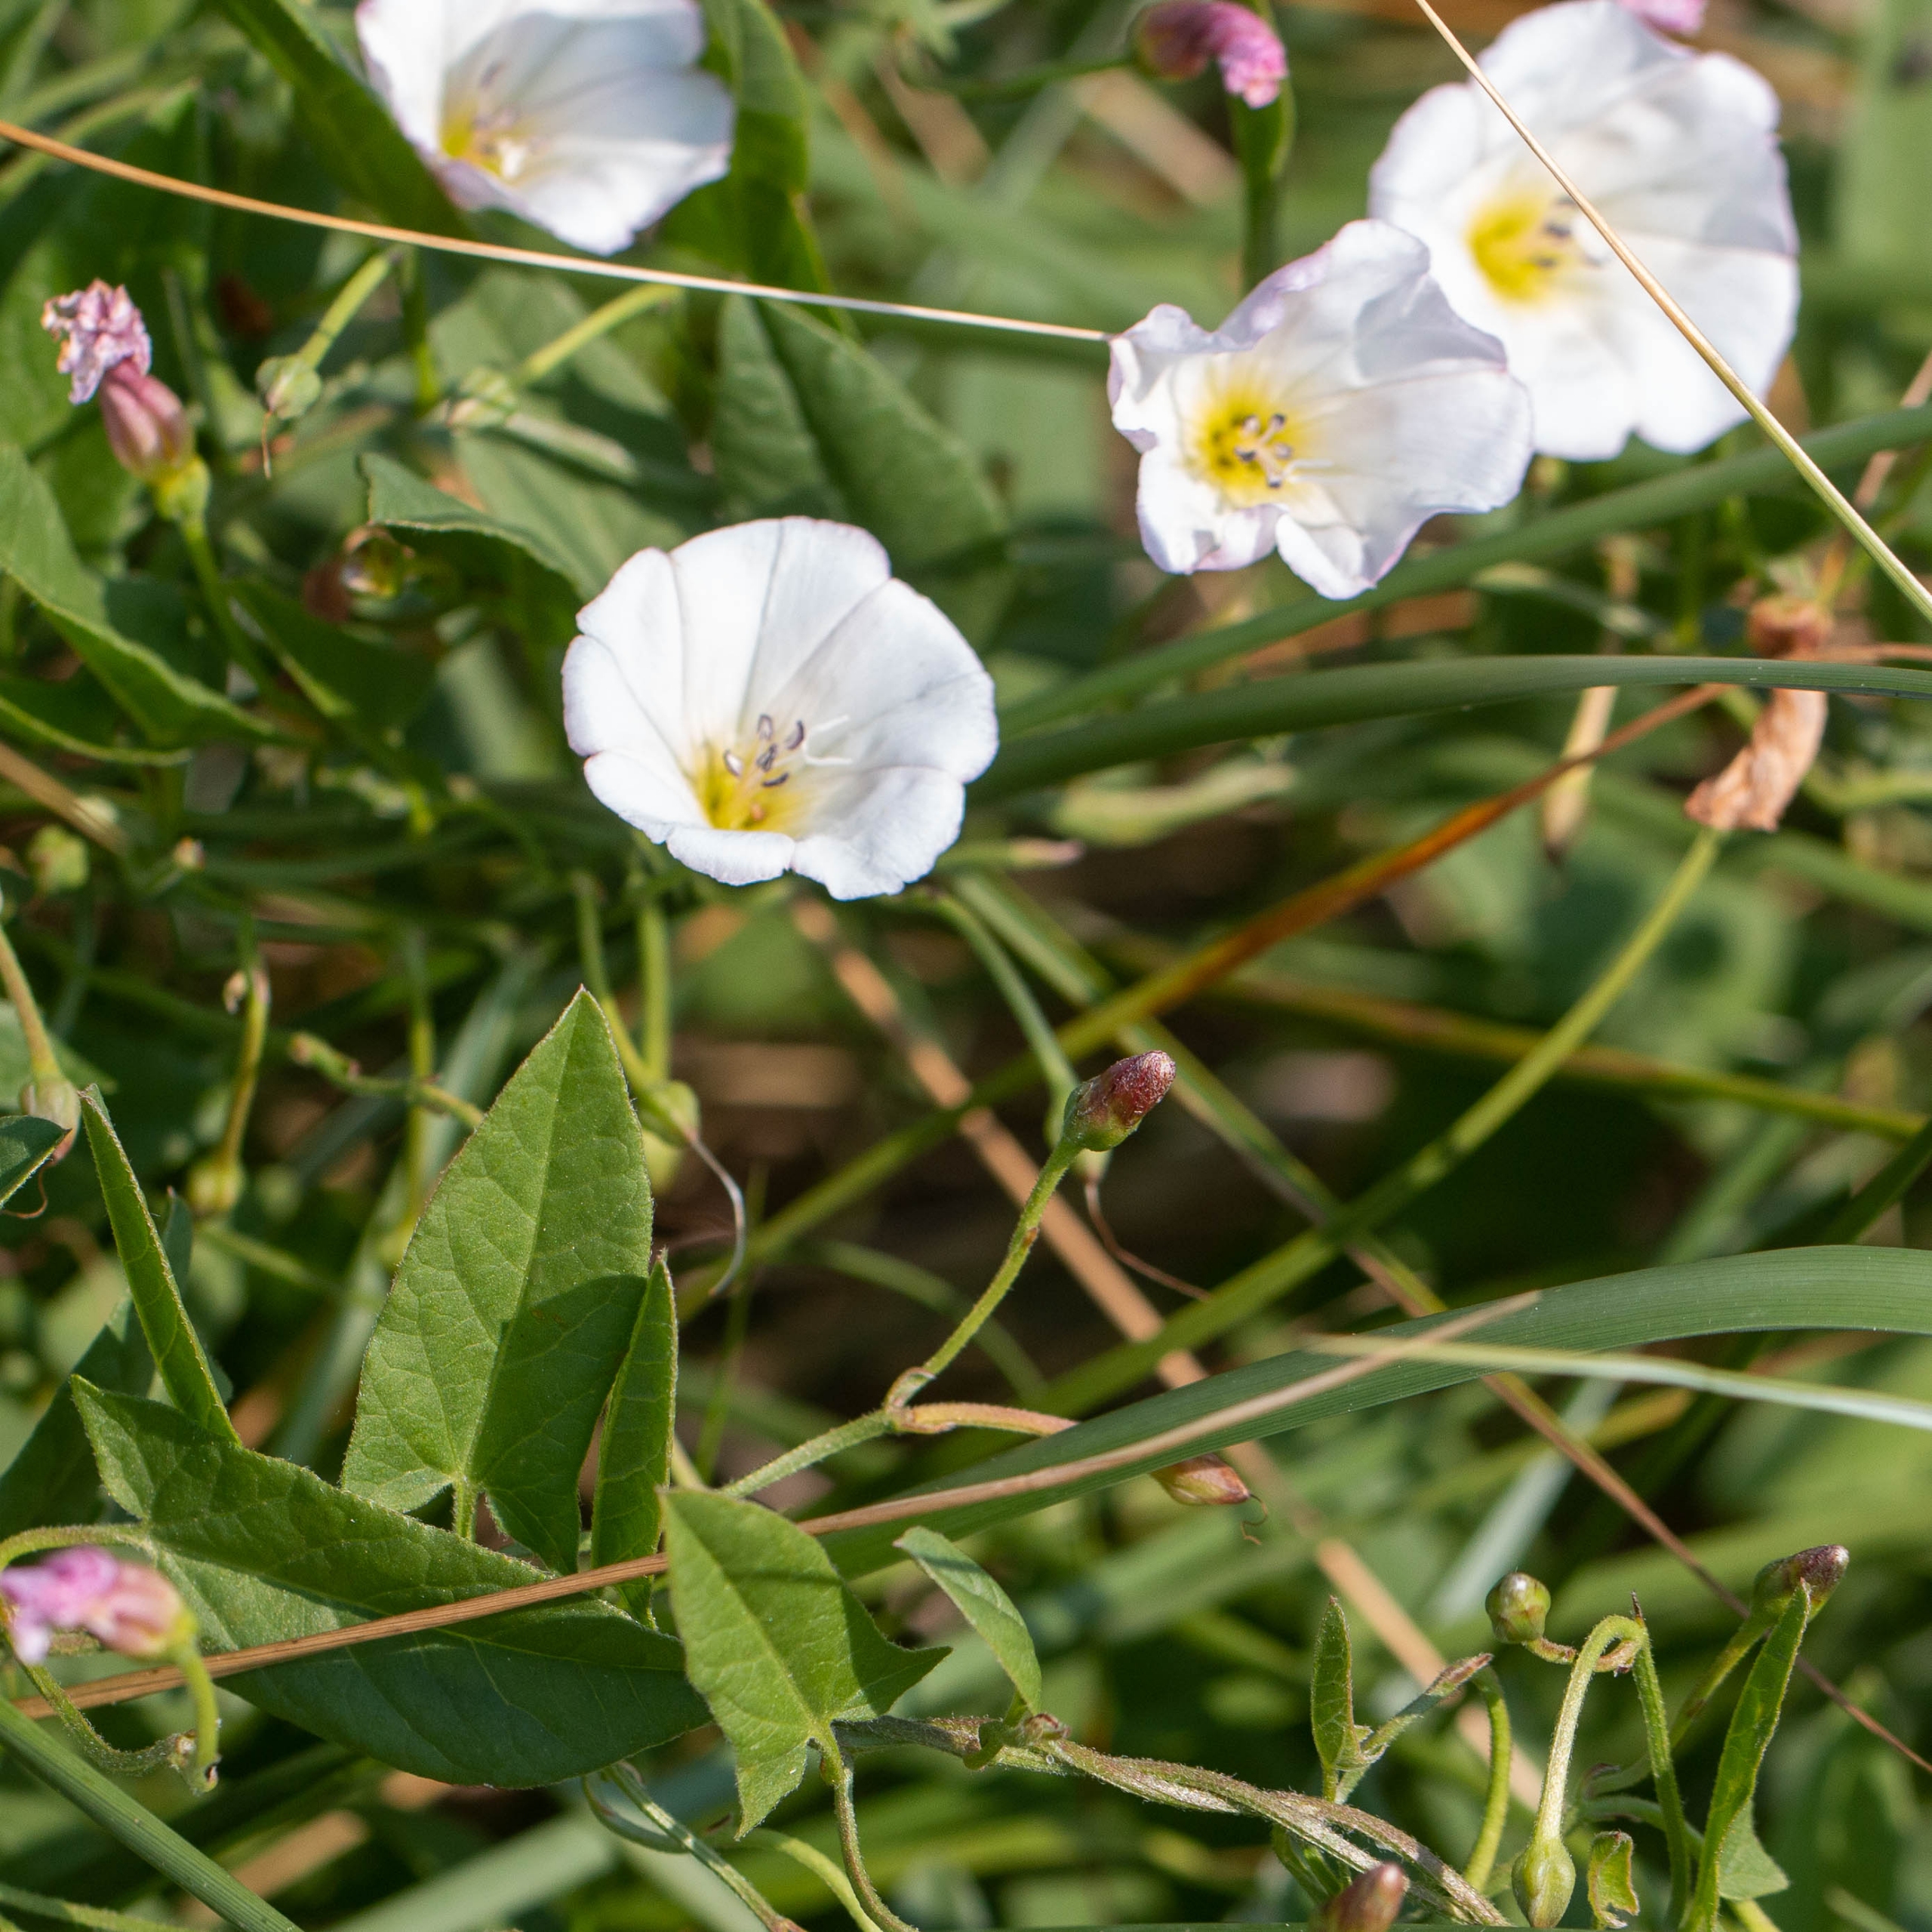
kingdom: Plantae
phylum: Tracheophyta
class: Magnoliopsida
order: Solanales
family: Convolvulaceae
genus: Convolvulus
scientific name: Convolvulus arvensis
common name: Ager-snerle
